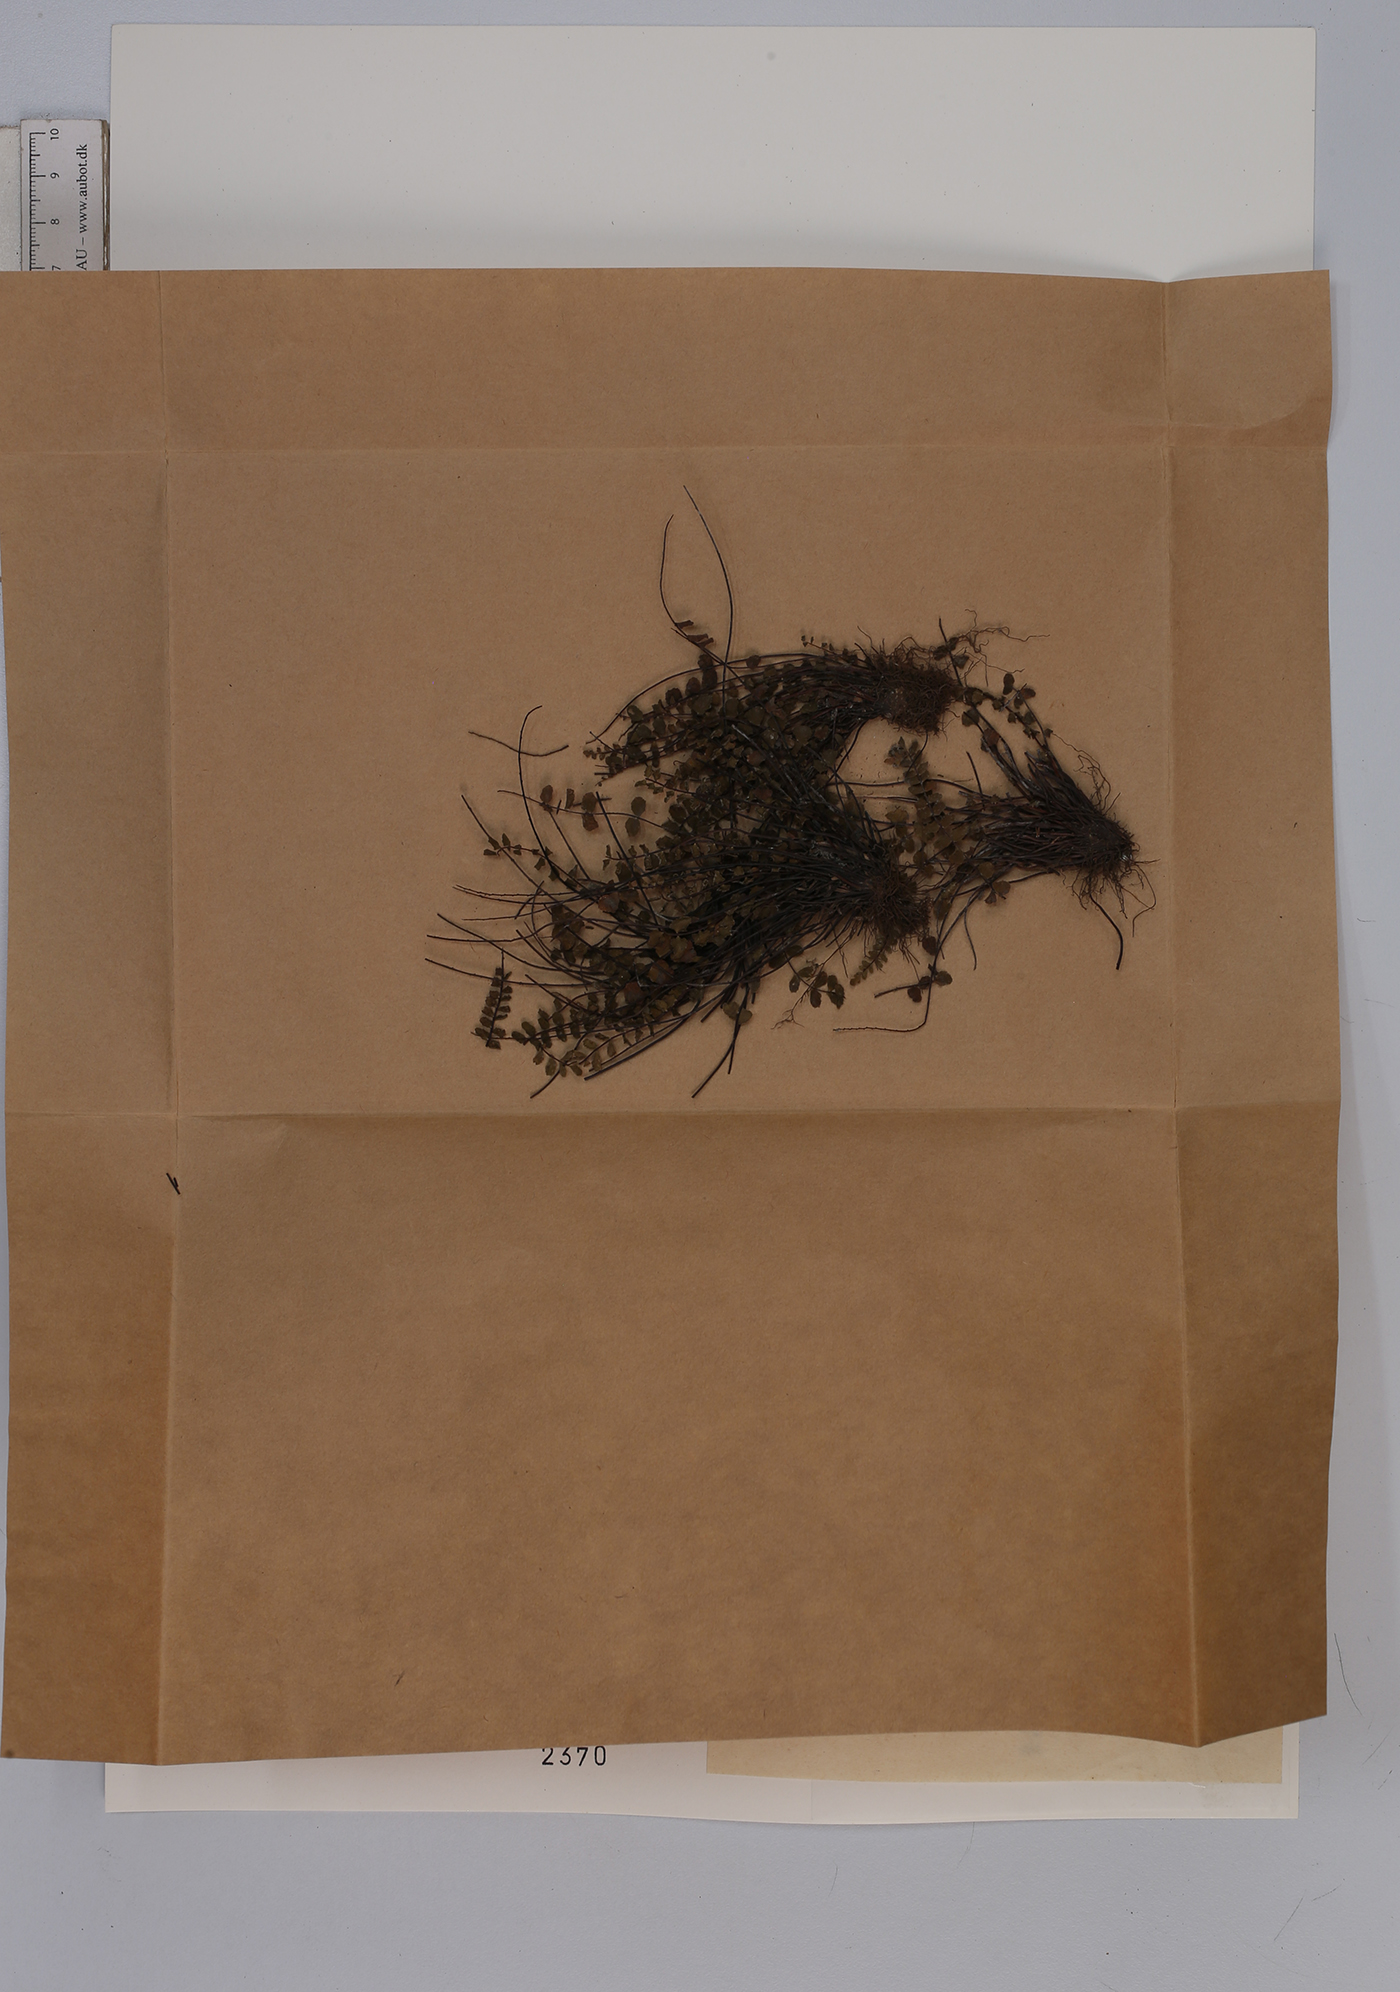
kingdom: Plantae
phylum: Tracheophyta
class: Polypodiopsida
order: Polypodiales
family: Aspleniaceae
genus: Asplenium
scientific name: Asplenium trichomanes
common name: Maidenhair spleenwort
